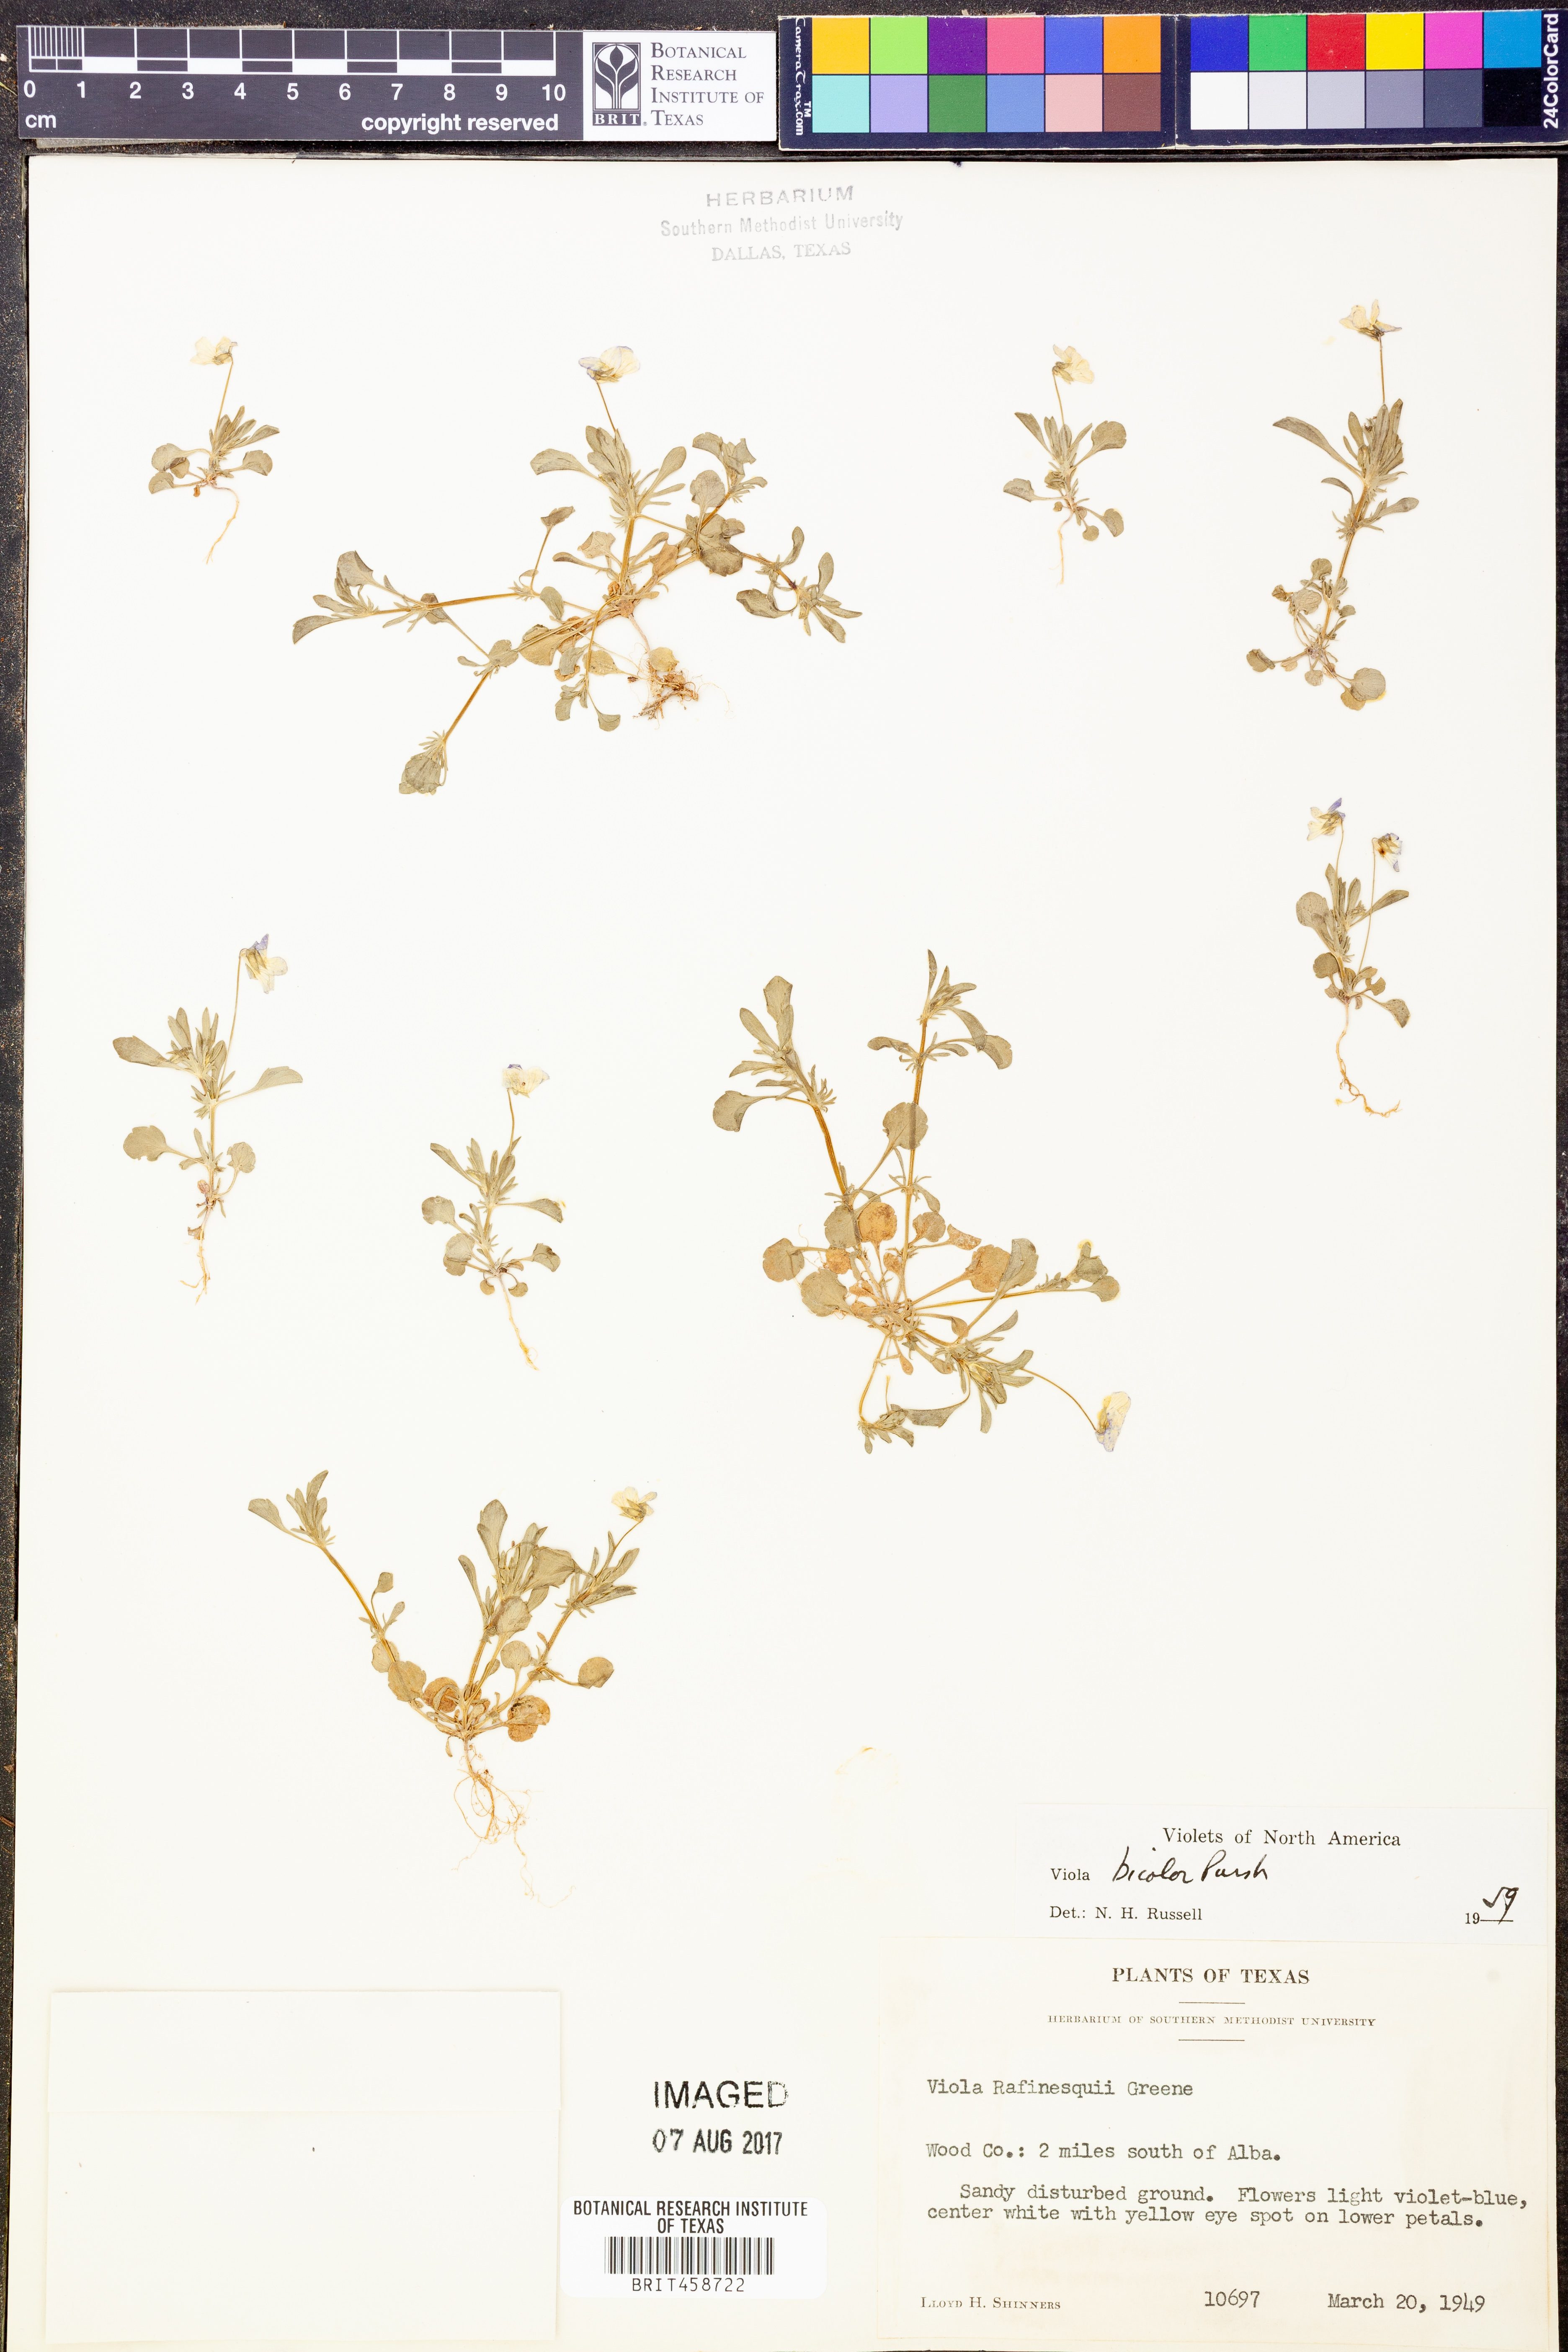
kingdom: Plantae
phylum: Tracheophyta
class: Magnoliopsida
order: Malpighiales
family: Violaceae
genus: Viola
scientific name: Viola rafinesquei
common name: American field pansy
